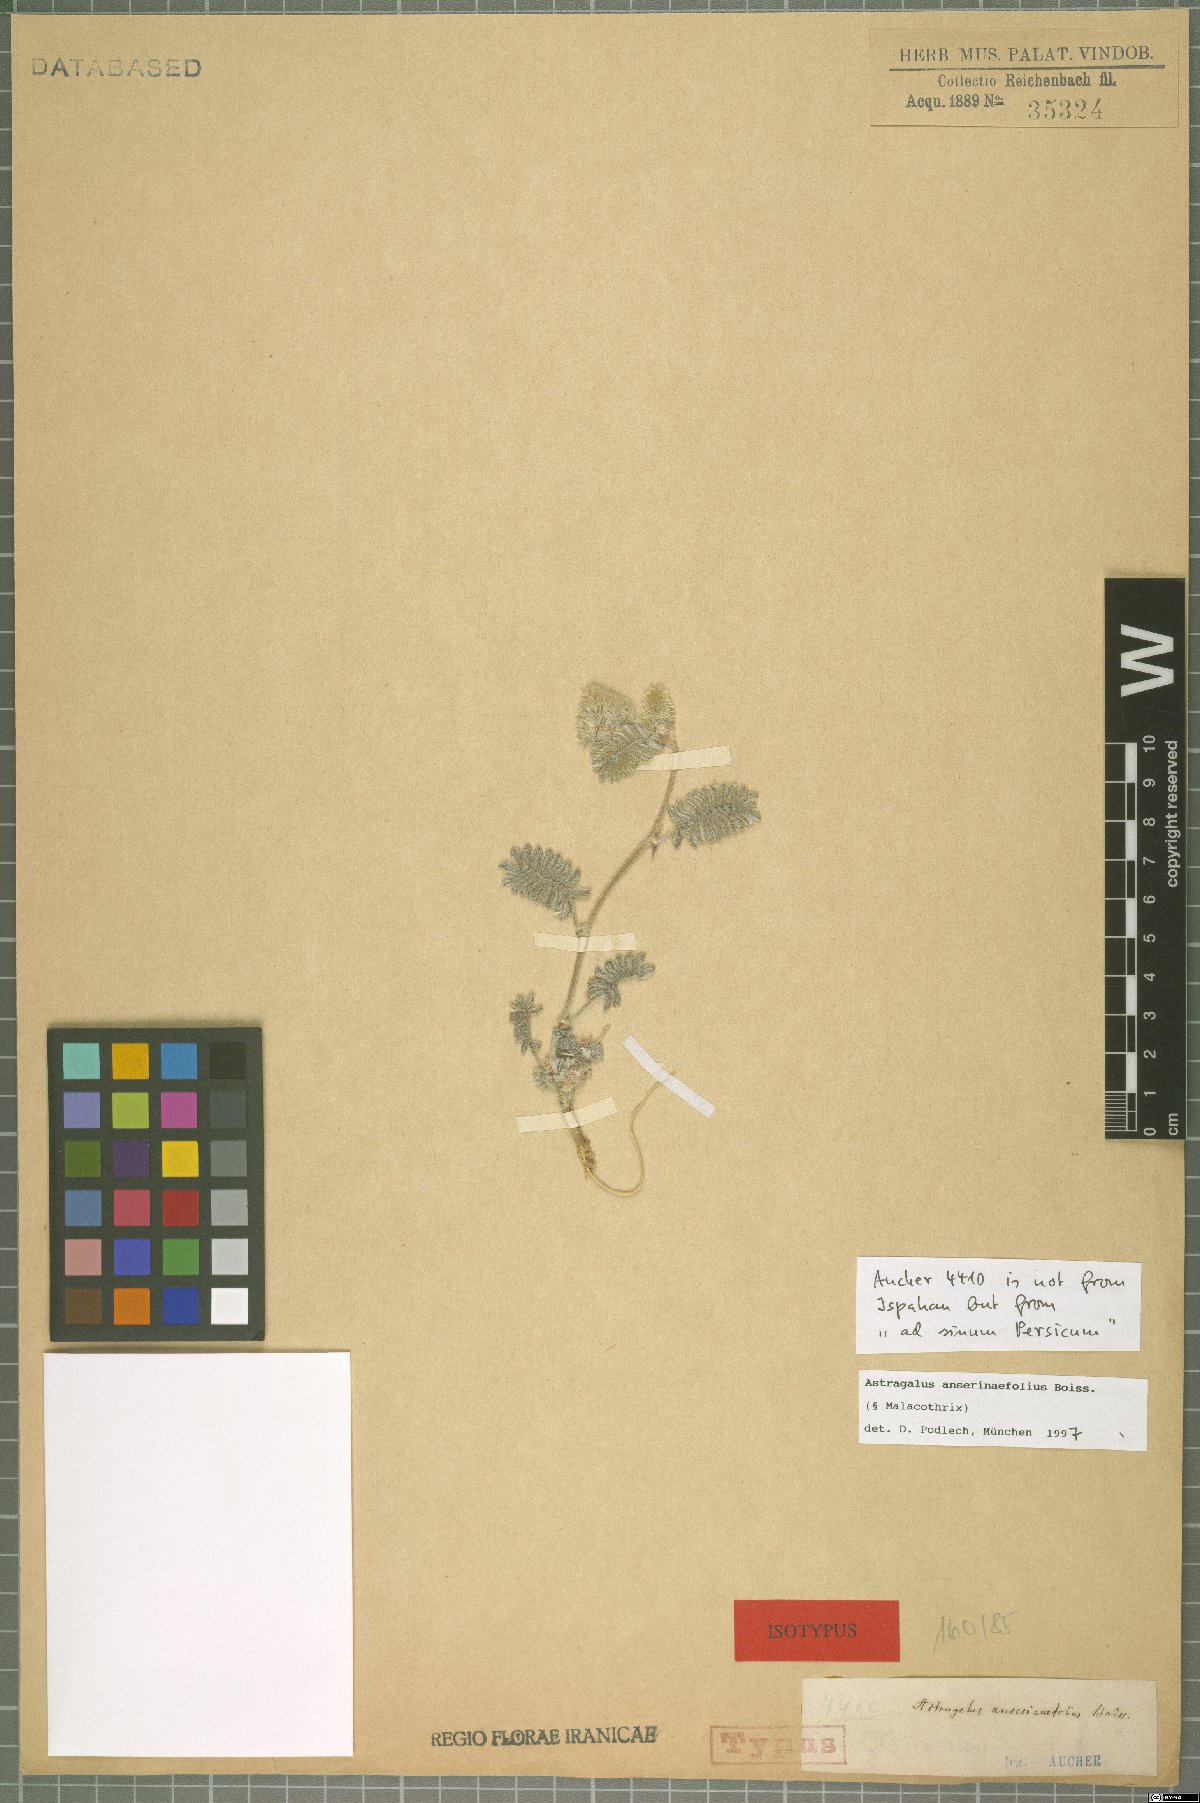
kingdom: Plantae
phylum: Tracheophyta
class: Magnoliopsida
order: Fabales
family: Fabaceae
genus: Astragalus
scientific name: Astragalus anserinifolius
